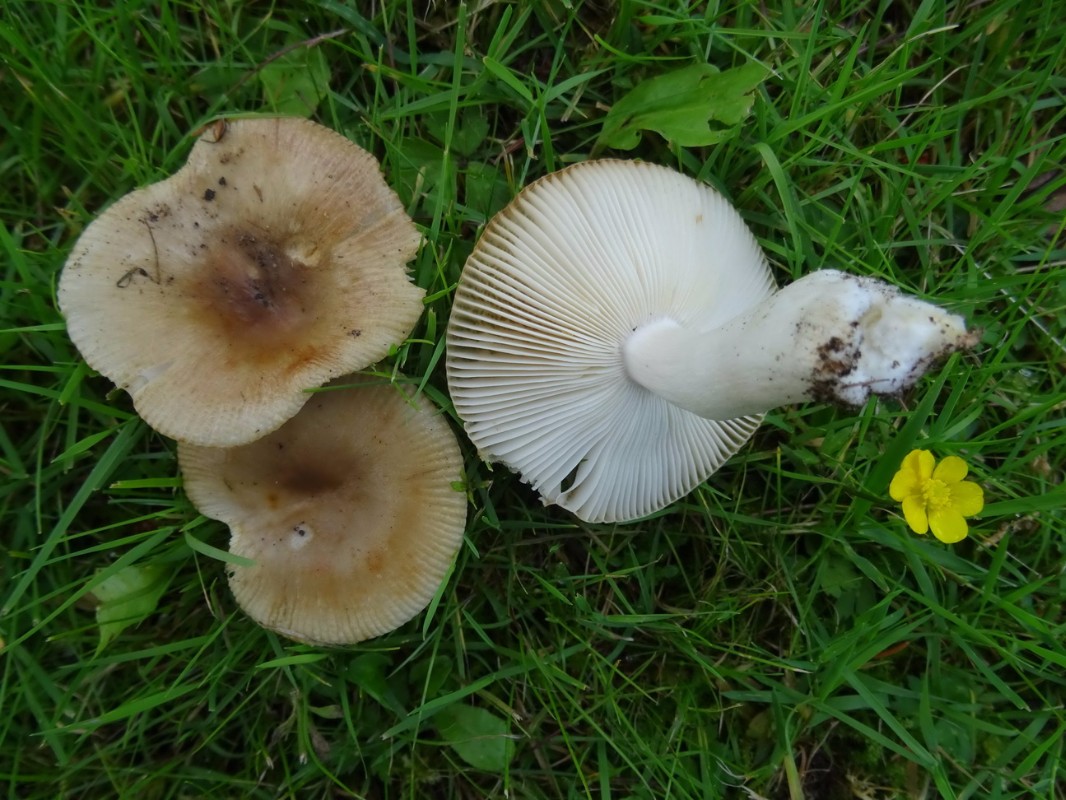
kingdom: Fungi
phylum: Basidiomycota
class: Agaricomycetes
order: Russulales
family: Russulaceae
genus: Russula
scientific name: Russula recondita
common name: mild kam-skørhat
